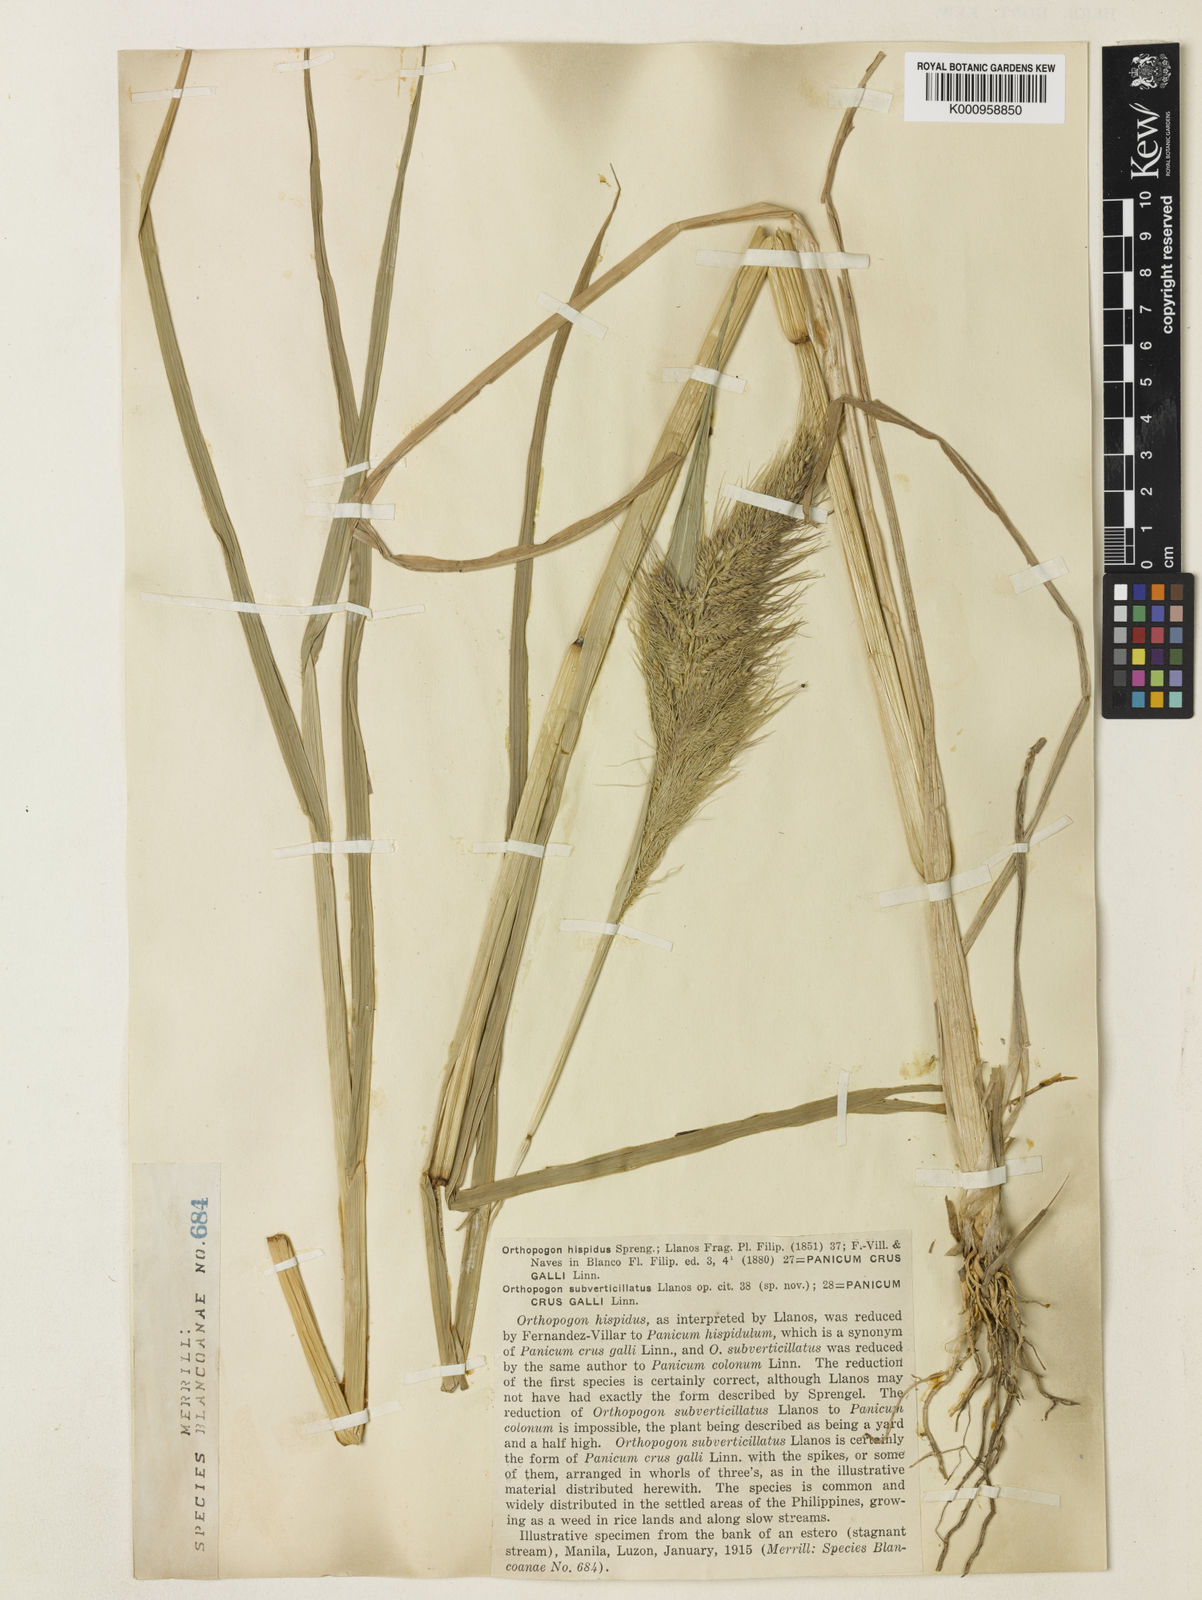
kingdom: Plantae
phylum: Tracheophyta
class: Liliopsida
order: Poales
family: Poaceae
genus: Echinochloa
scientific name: Echinochloa crus-galli
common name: Cockspur
